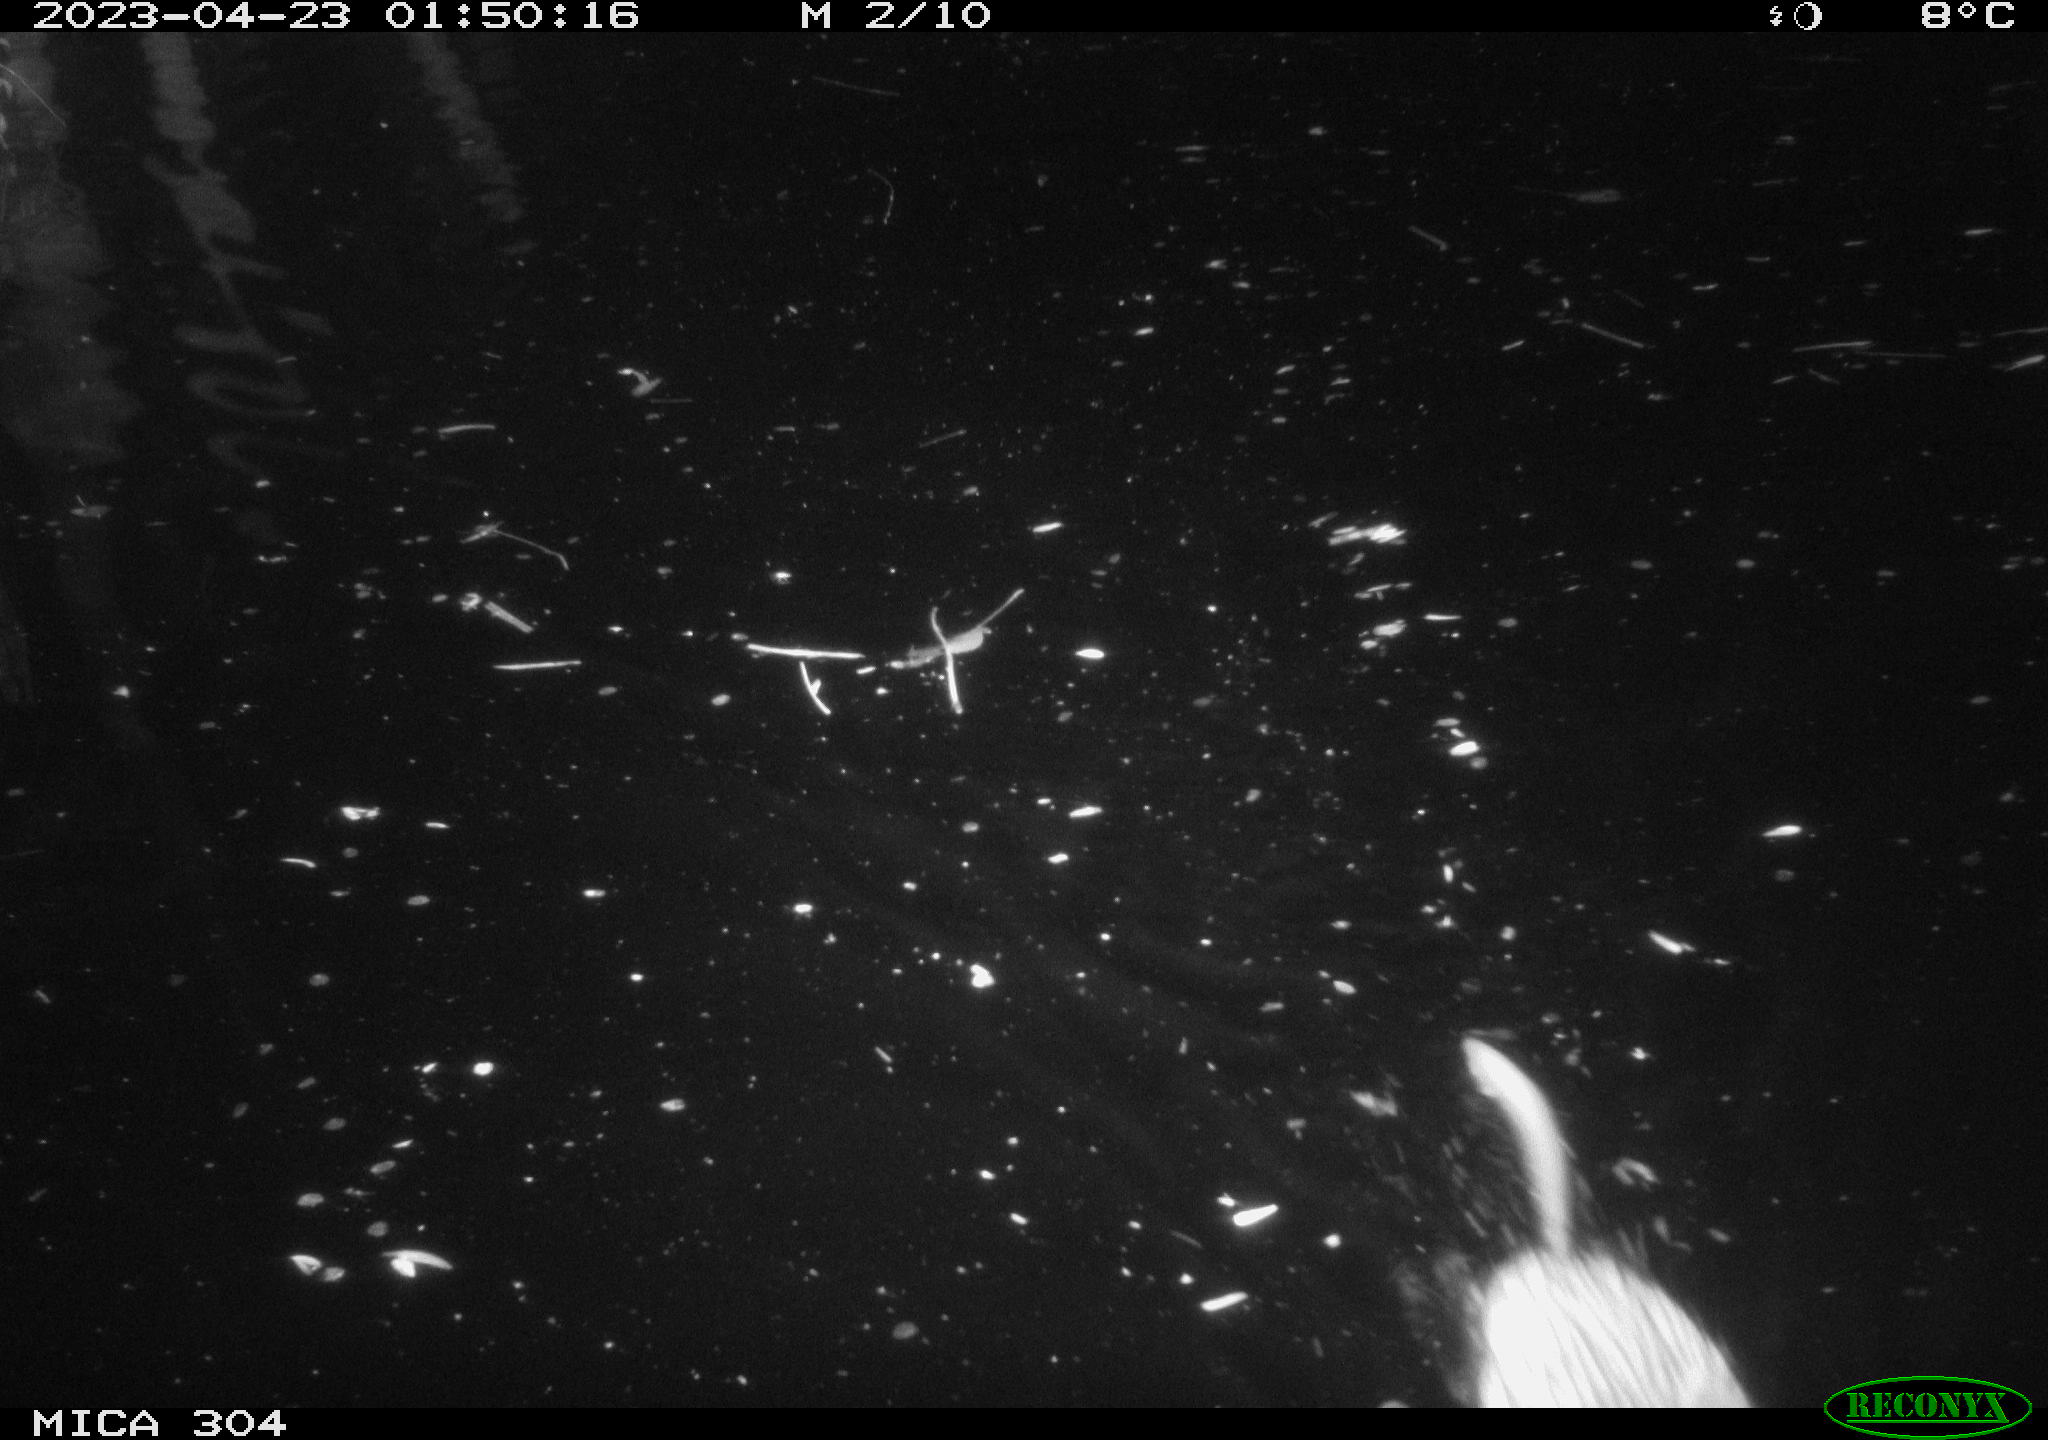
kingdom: Animalia
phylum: Chordata
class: Mammalia
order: Rodentia
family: Cricetidae
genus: Ondatra
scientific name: Ondatra zibethicus
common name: Muskrat
